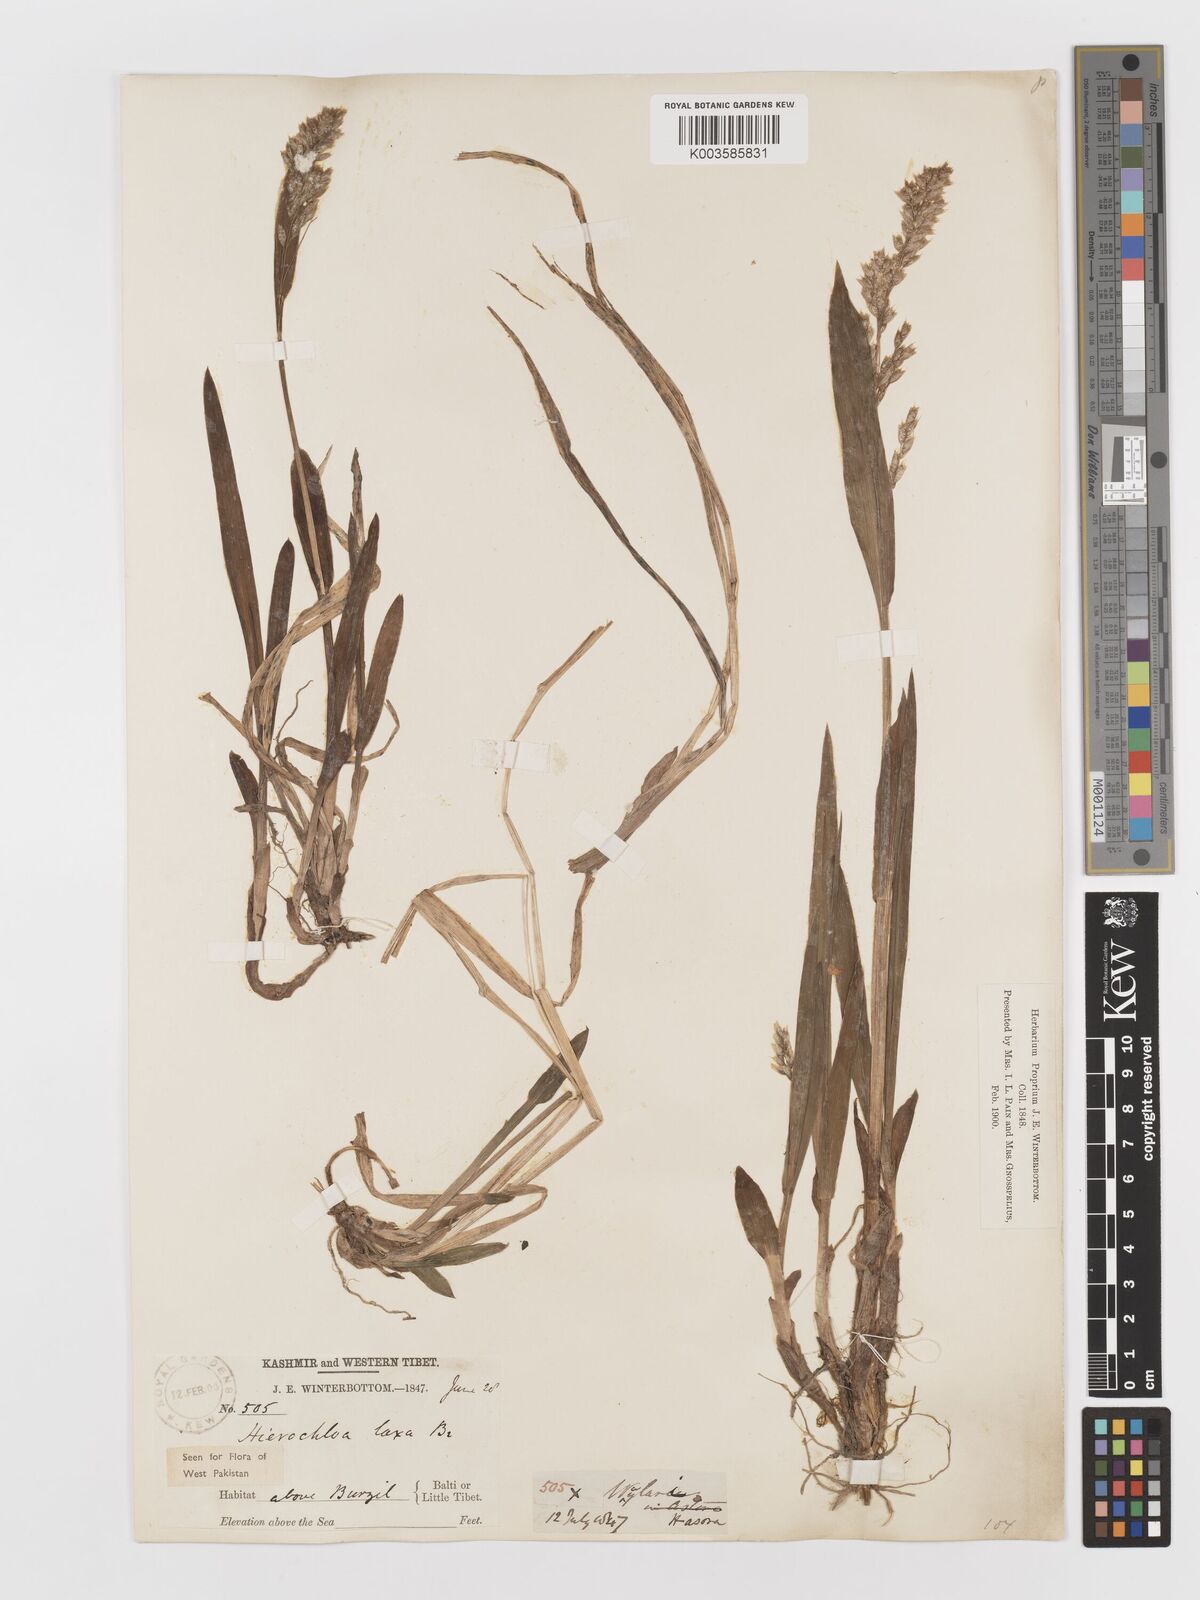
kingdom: Plantae
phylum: Tracheophyta
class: Liliopsida
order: Poales
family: Poaceae
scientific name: Poaceae
